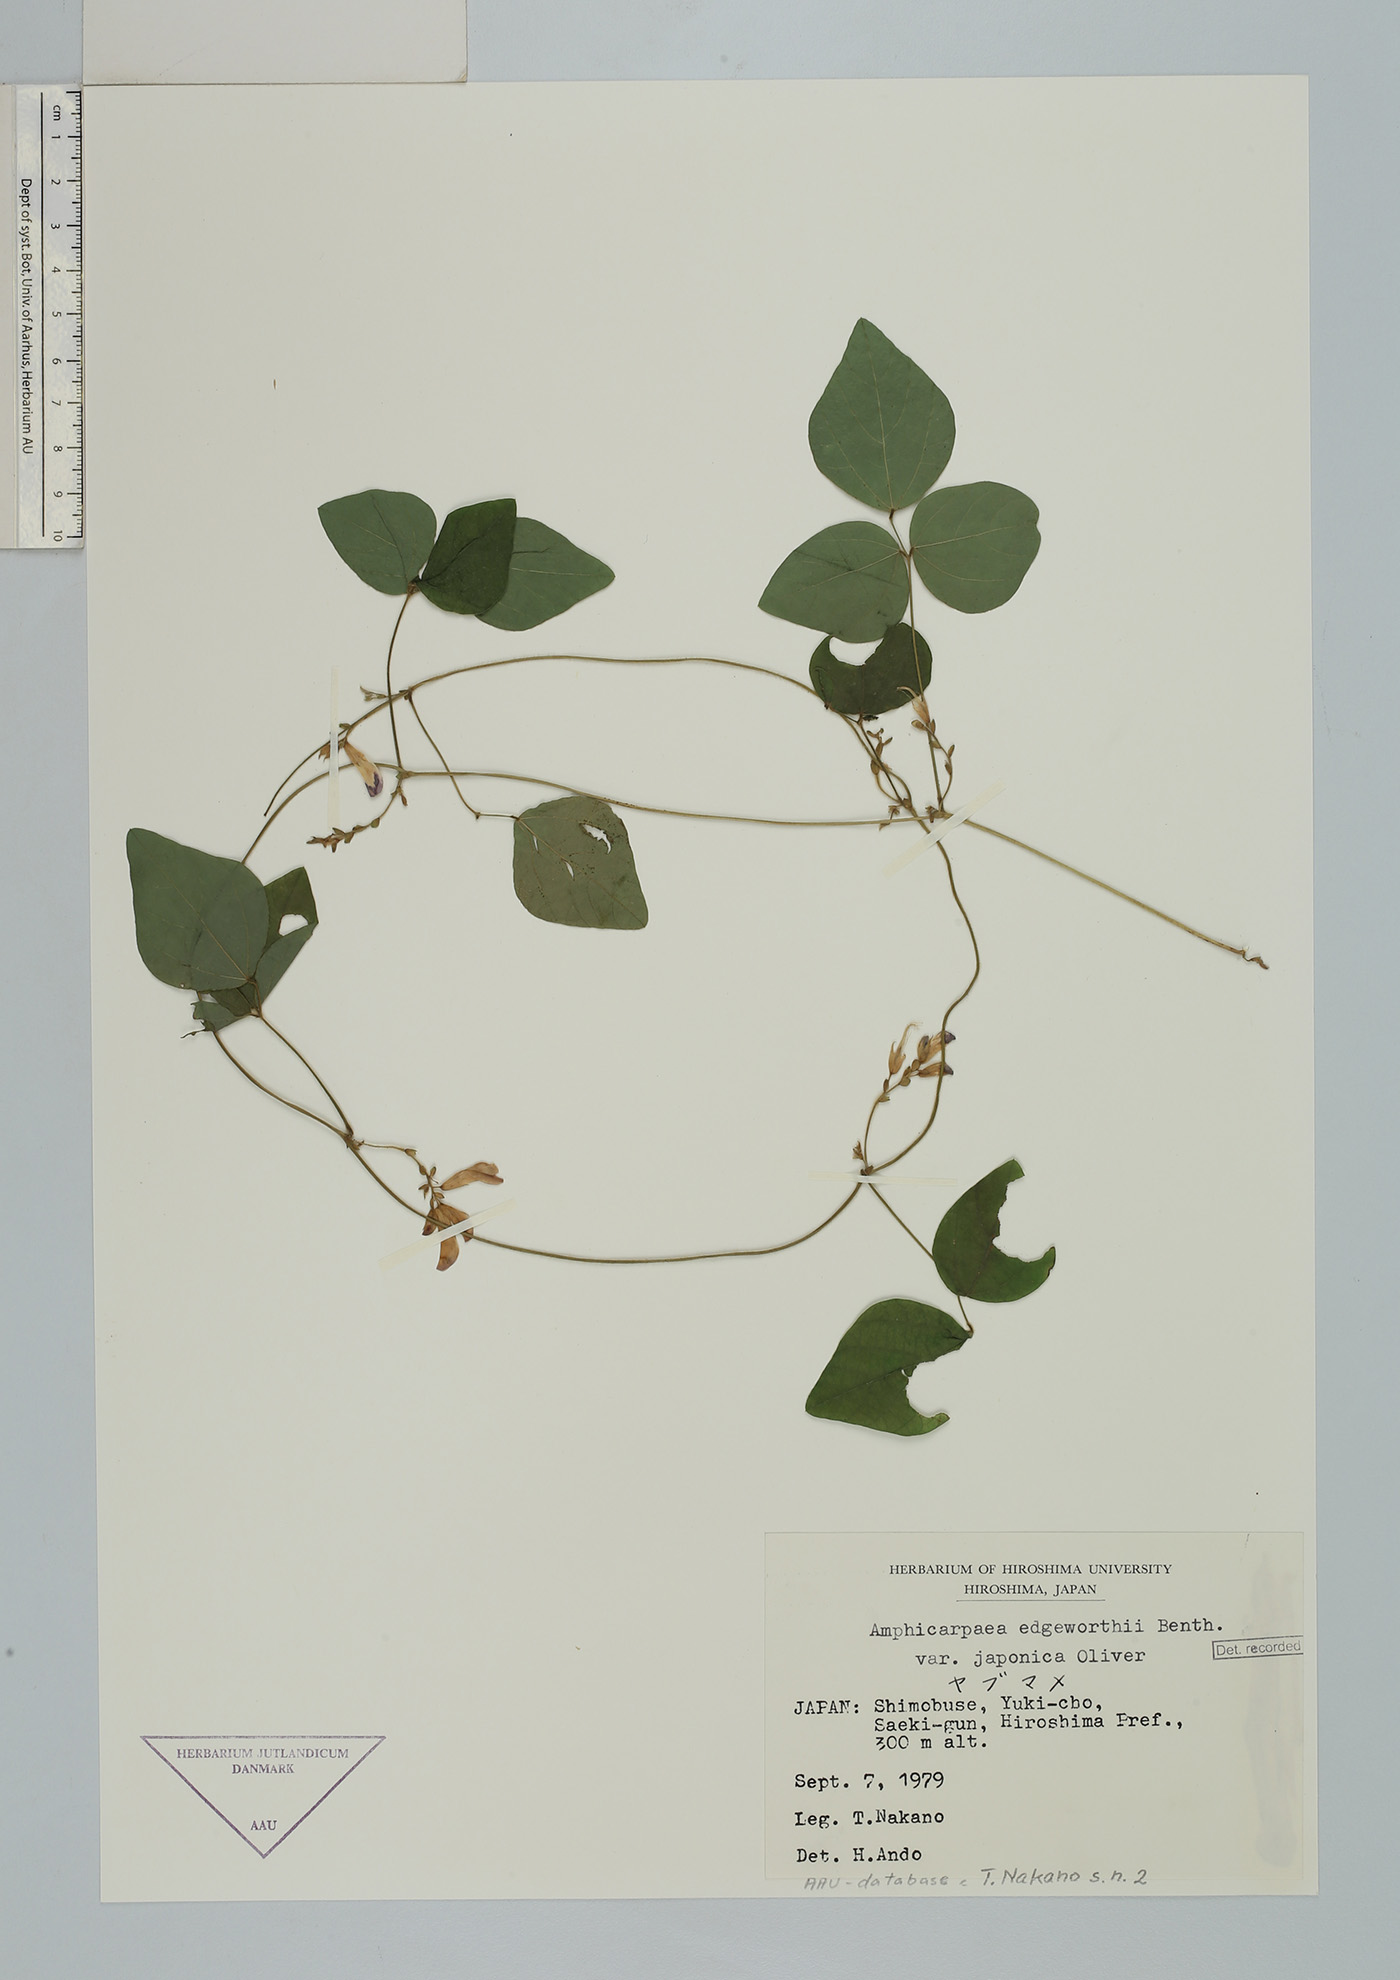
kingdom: Plantae
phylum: Tracheophyta
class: Magnoliopsida
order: Fabales
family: Fabaceae
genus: Amphicarpaea
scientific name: Amphicarpaea edgeworthii
